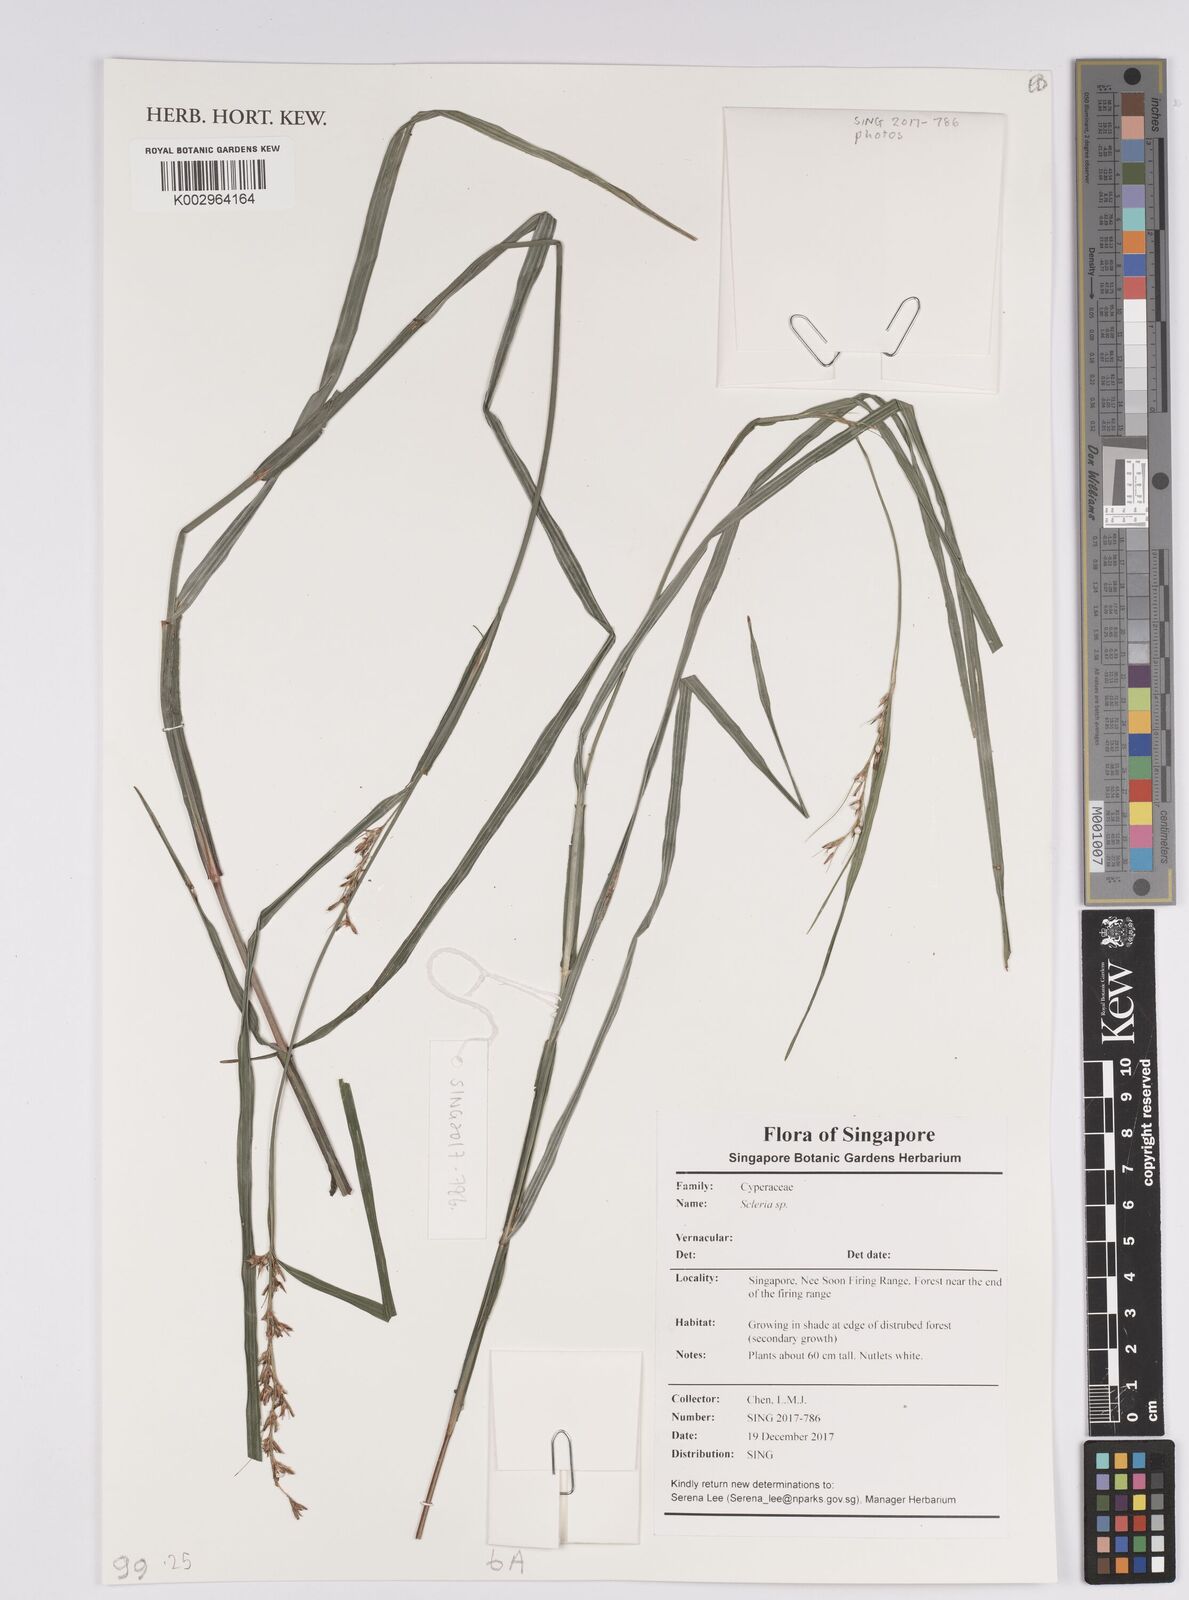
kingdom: Plantae
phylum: Tracheophyta
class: Liliopsida
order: Poales
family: Cyperaceae
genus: Scleria
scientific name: Scleria
